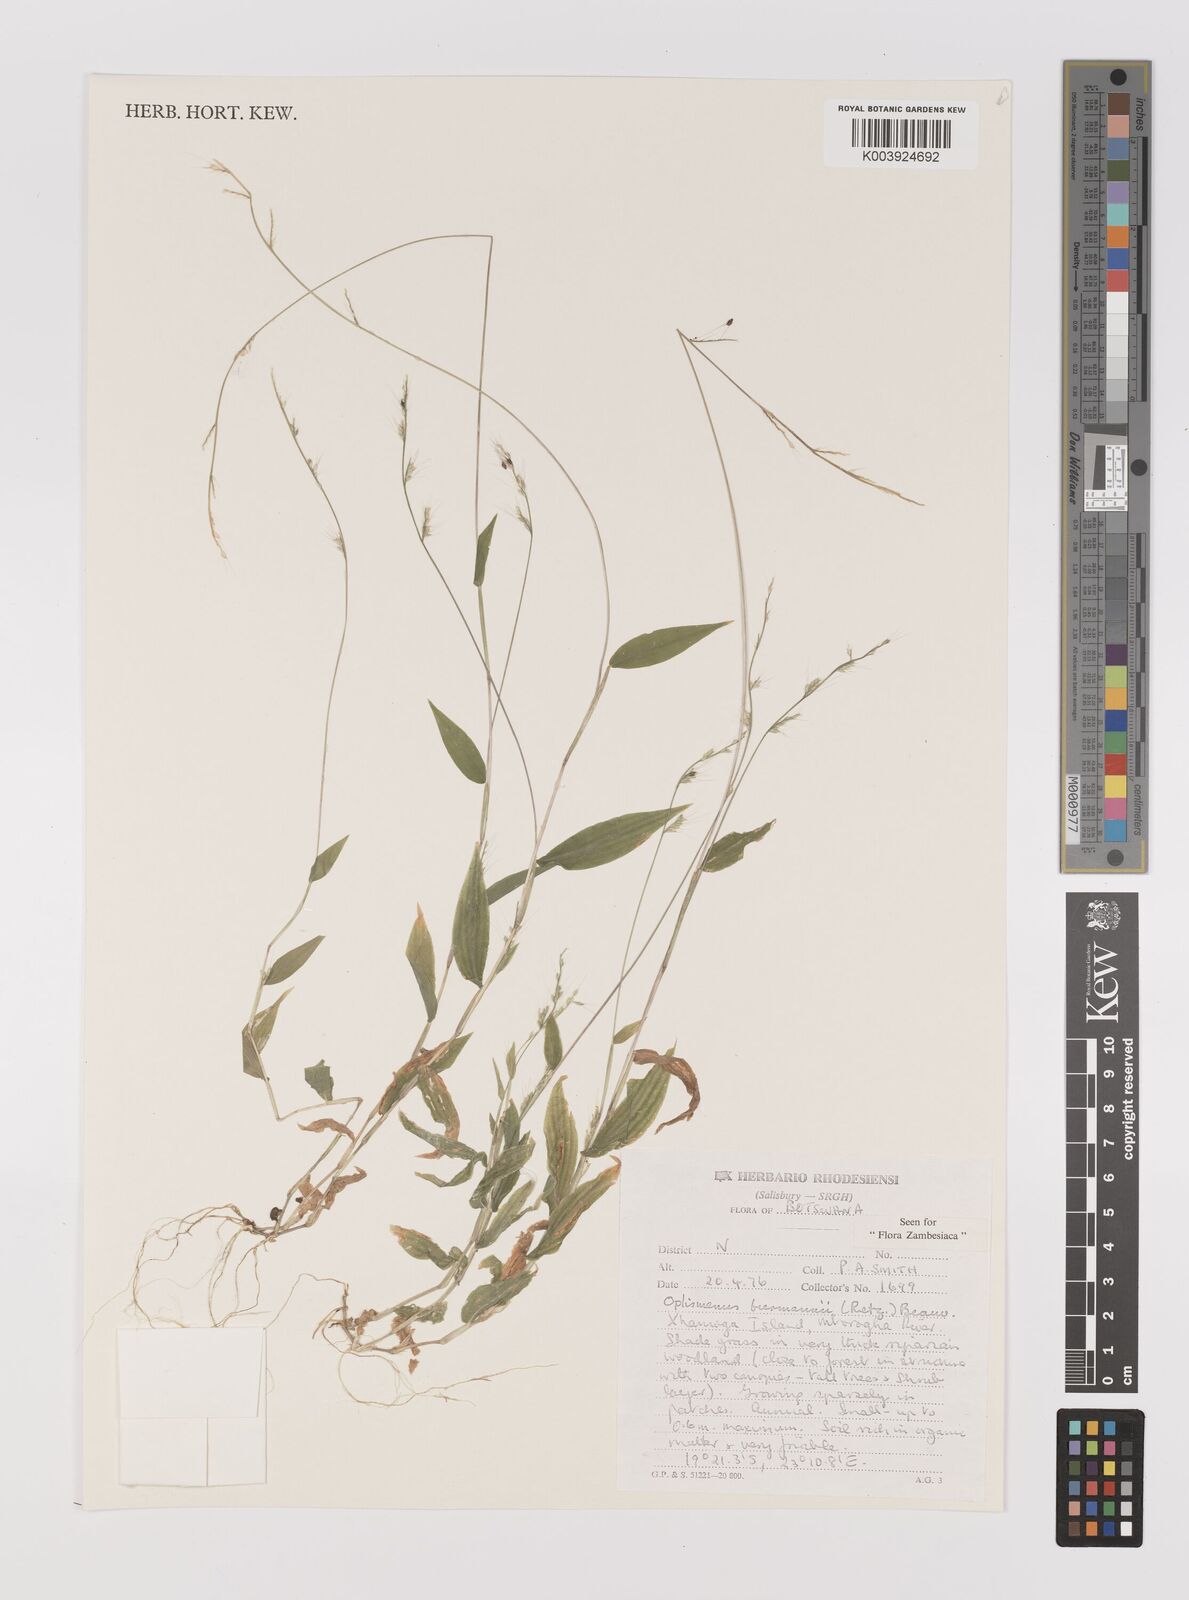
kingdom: Plantae
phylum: Tracheophyta
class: Liliopsida
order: Poales
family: Poaceae
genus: Oplismenus
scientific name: Oplismenus burmanni
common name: Burmann's basketgrass
